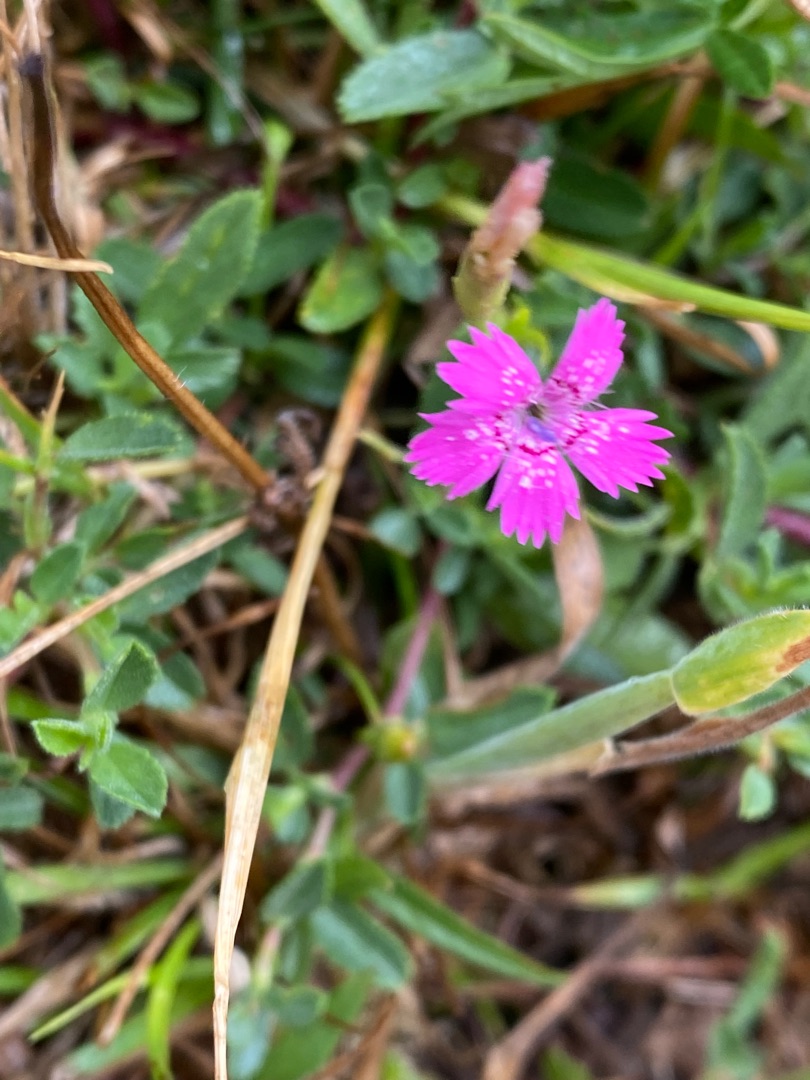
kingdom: Plantae
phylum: Tracheophyta
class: Magnoliopsida
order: Caryophyllales
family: Caryophyllaceae
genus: Dianthus
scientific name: Dianthus deltoides
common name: Bakke-nellike
